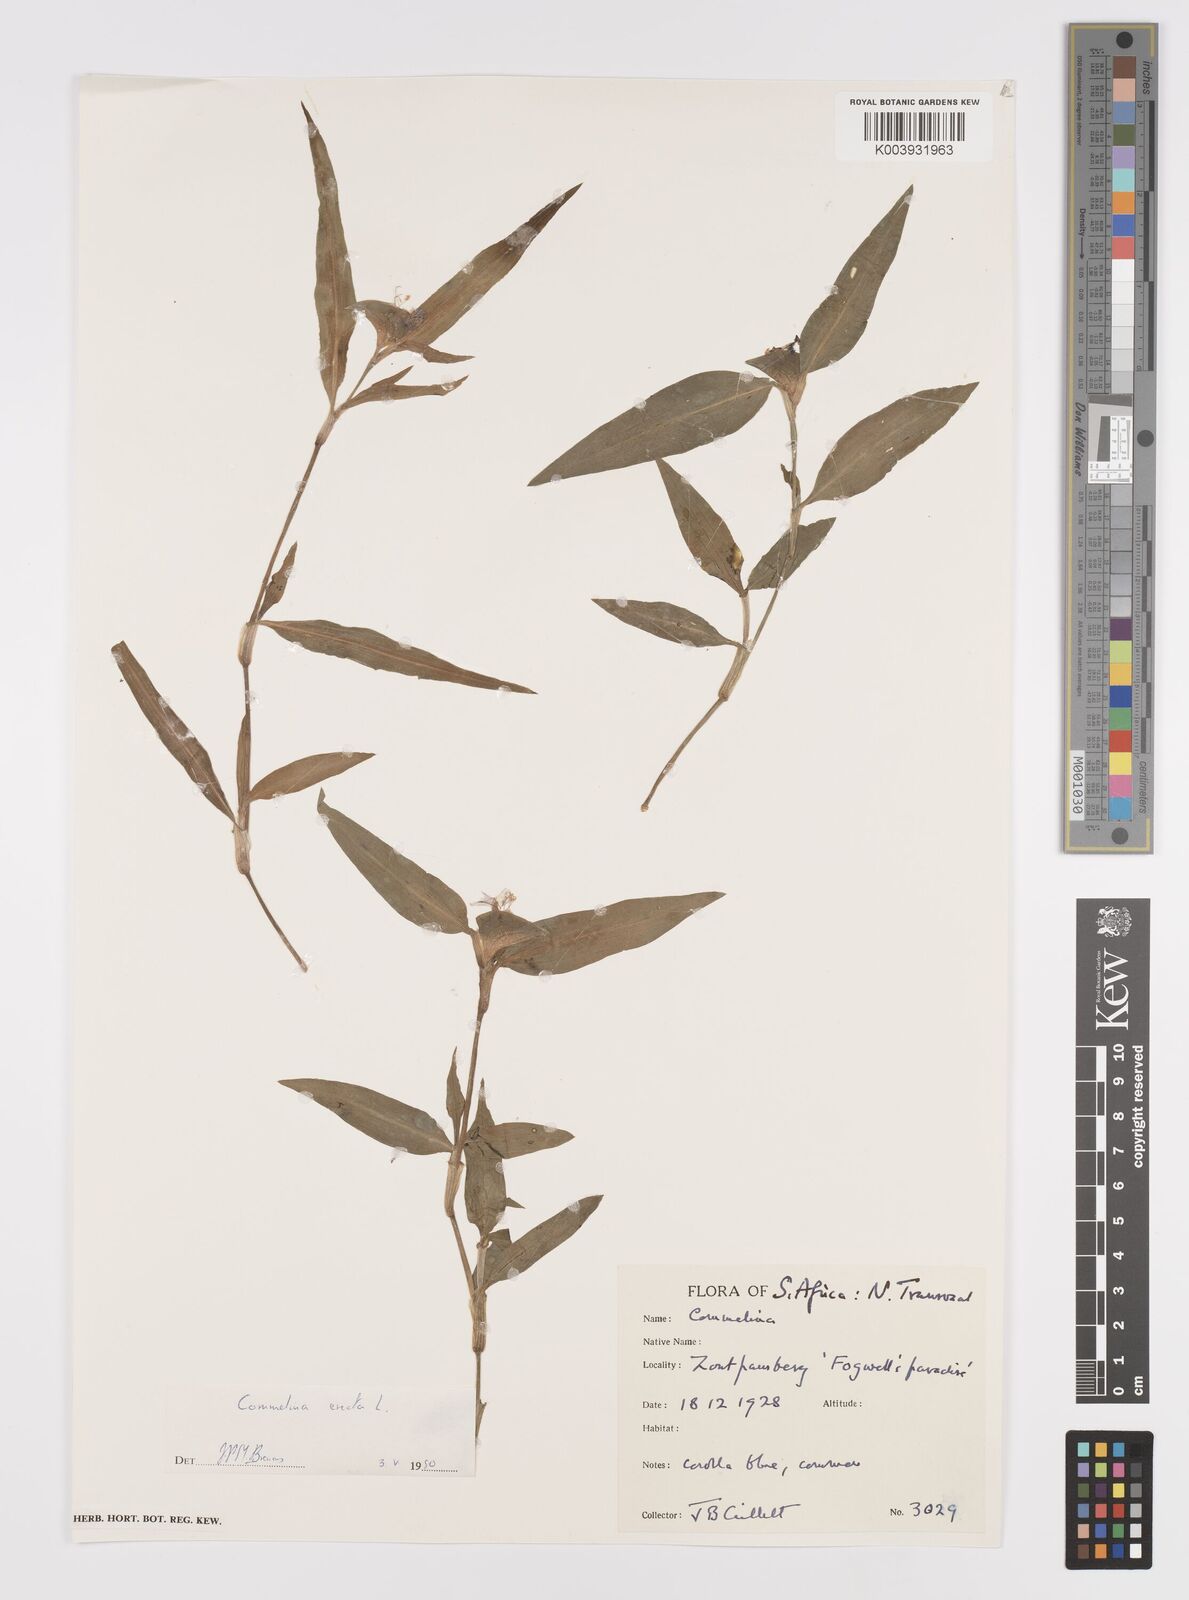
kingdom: Plantae
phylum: Tracheophyta
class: Liliopsida
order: Commelinales
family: Commelinaceae
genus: Commelina
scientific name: Commelina erecta
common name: Blousel blommetjie
